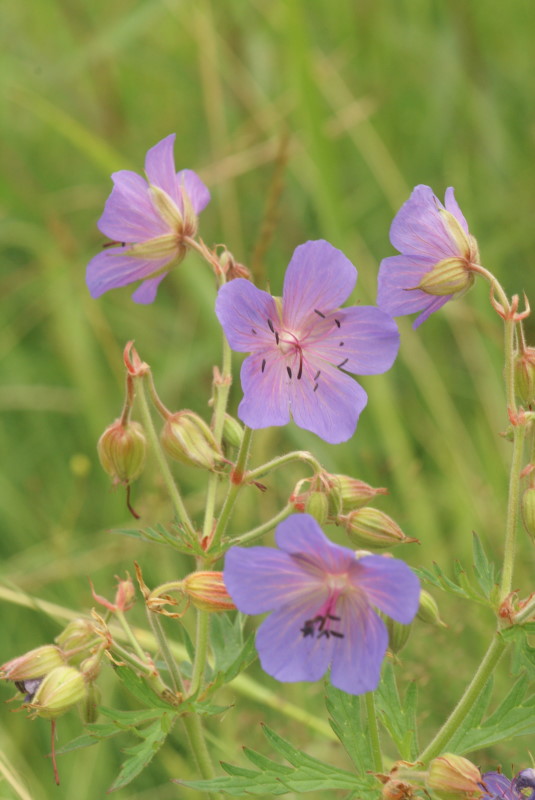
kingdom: Plantae
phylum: Tracheophyta
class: Magnoliopsida
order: Geraniales
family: Geraniaceae
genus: Geranium
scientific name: Geranium pratense
